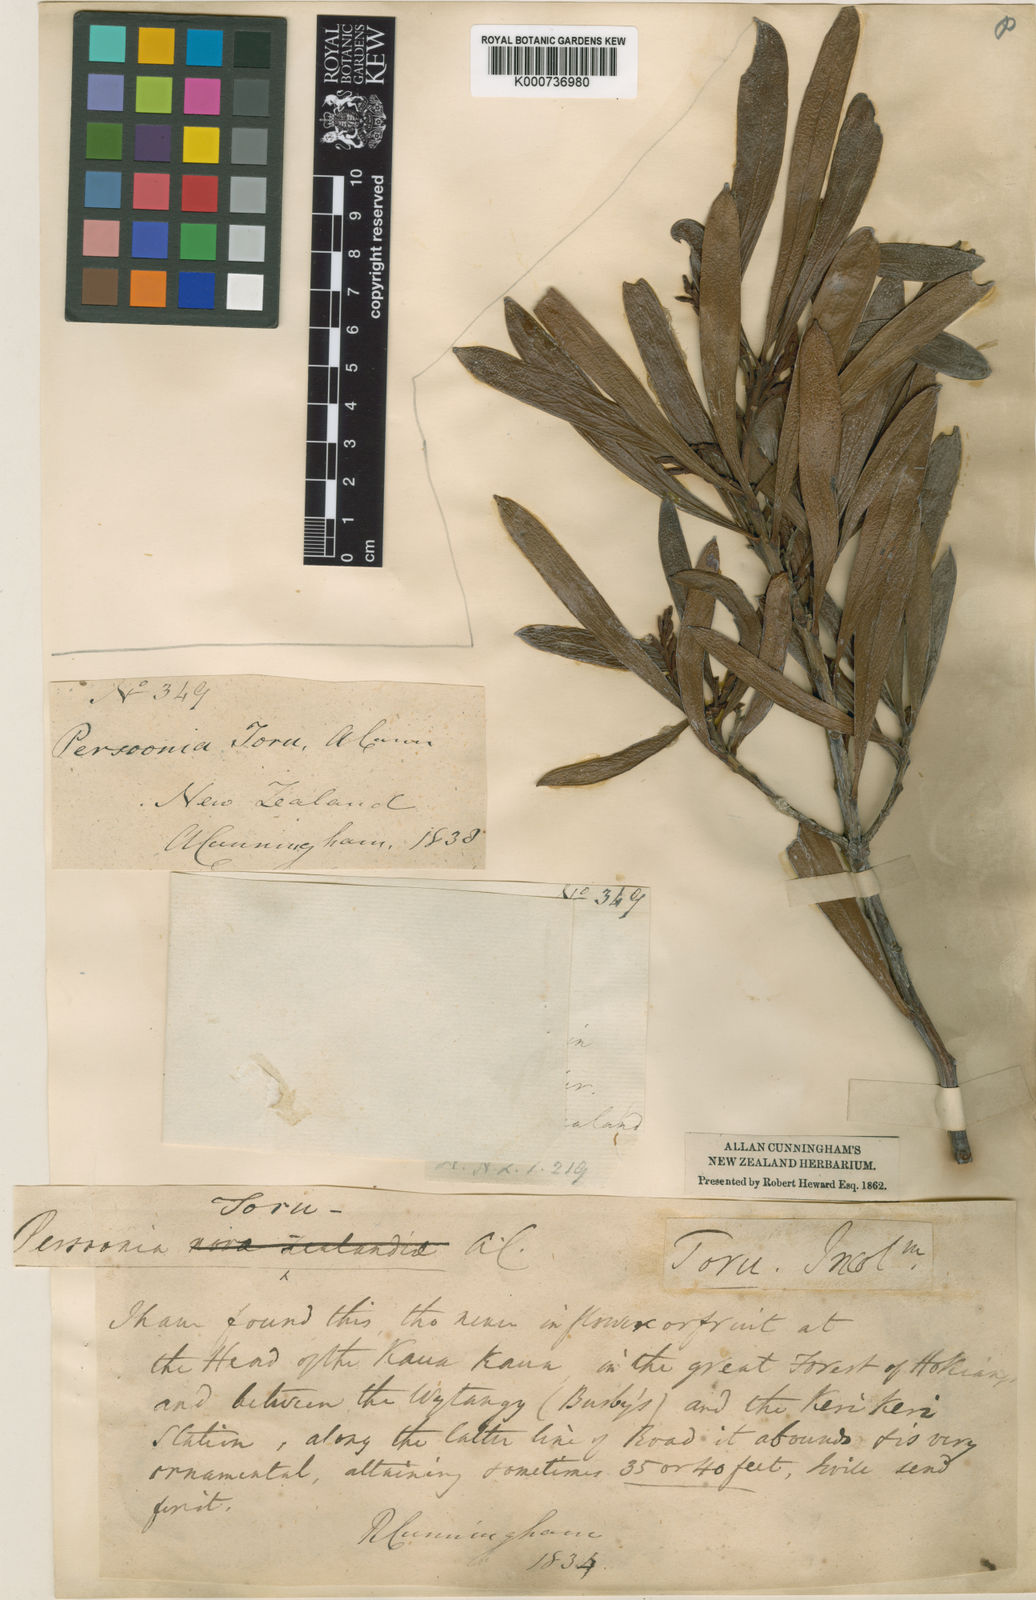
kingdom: Plantae
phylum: Tracheophyta
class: Magnoliopsida
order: Proteales
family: Proteaceae
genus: Toronia
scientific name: Toronia toru
